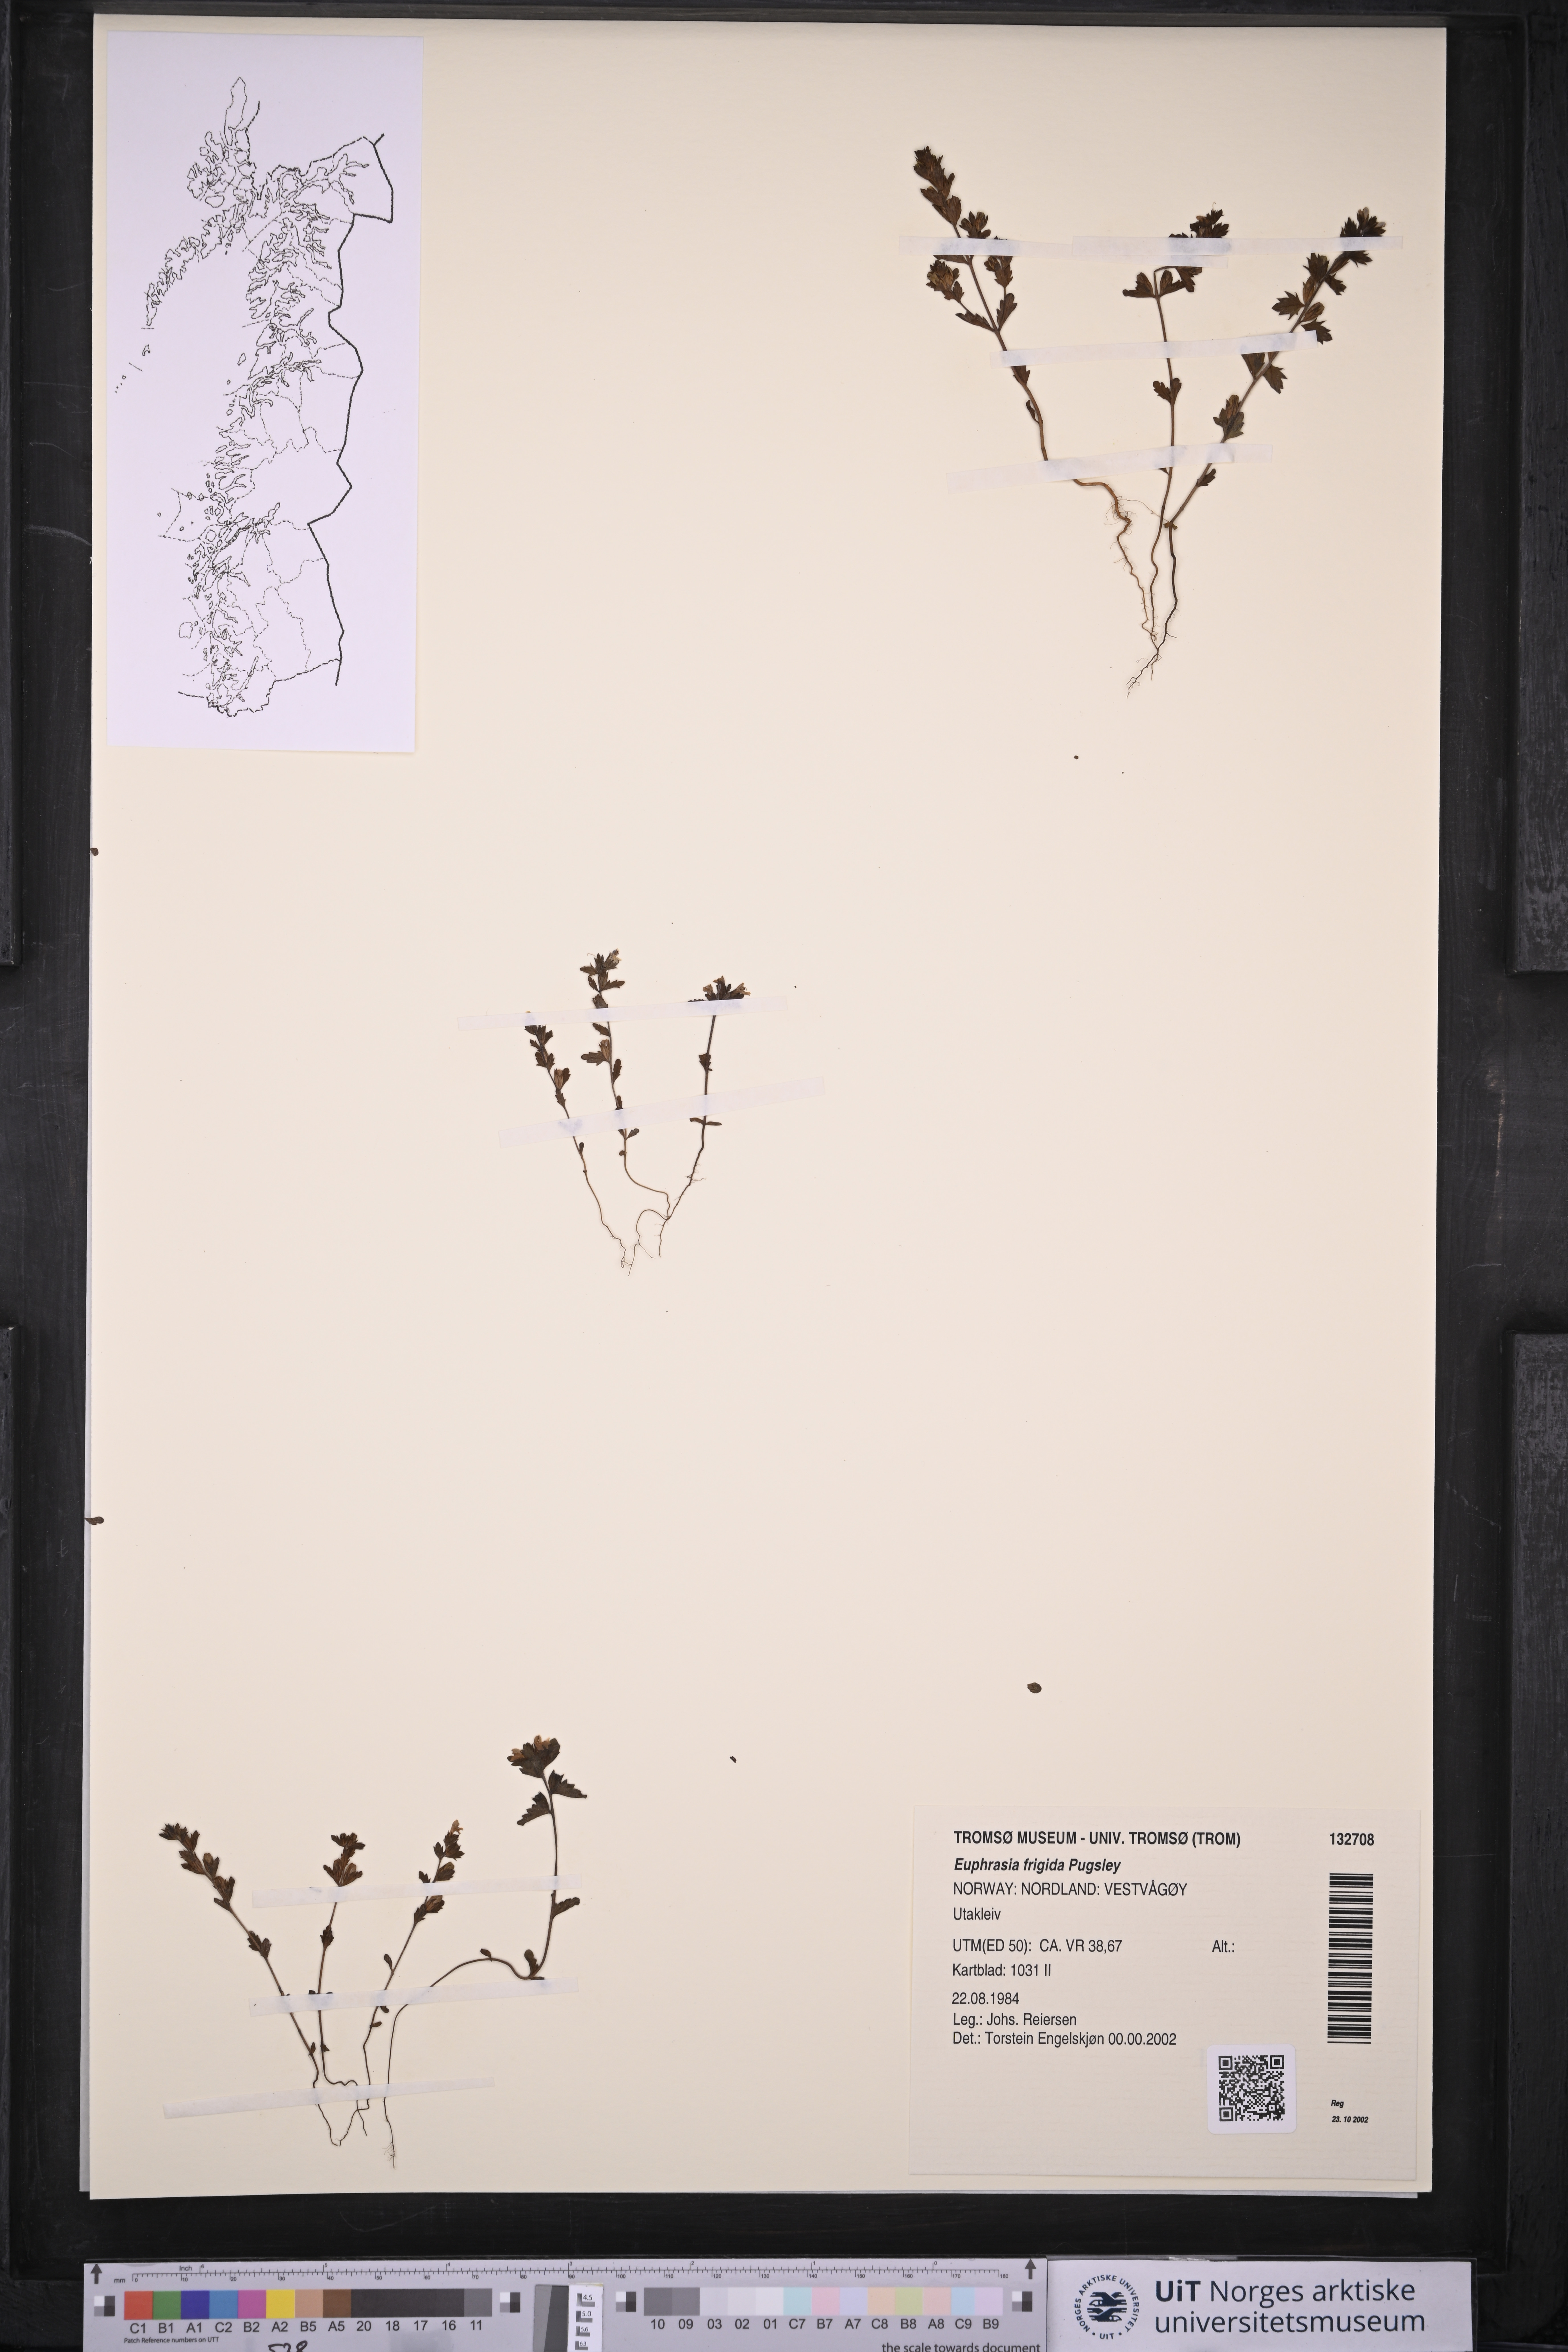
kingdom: Plantae
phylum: Tracheophyta
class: Magnoliopsida
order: Lamiales
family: Orobanchaceae
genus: Euphrasia
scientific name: Euphrasia frigida
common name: An eyebright
